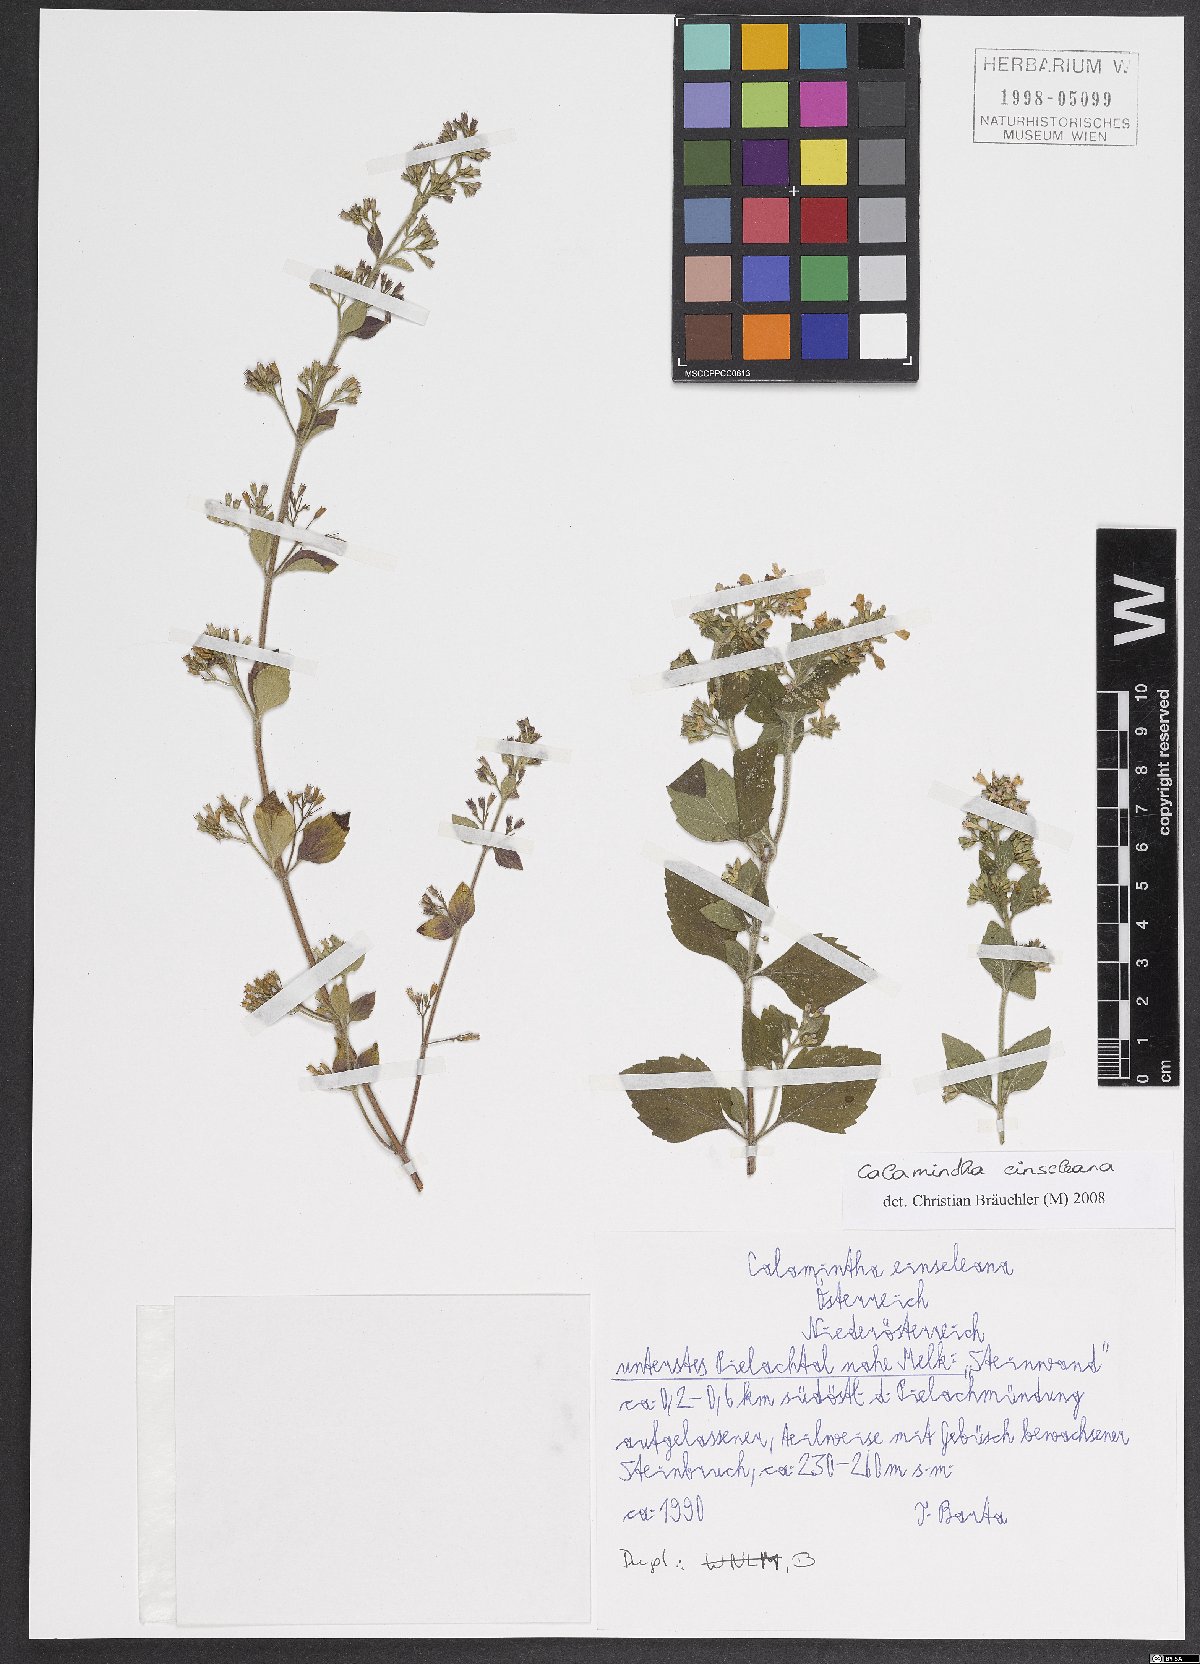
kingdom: Plantae
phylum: Tracheophyta
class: Magnoliopsida
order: Lamiales
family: Lamiaceae
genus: Clinopodium
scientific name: Clinopodium nepeta
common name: Lesser calamint
